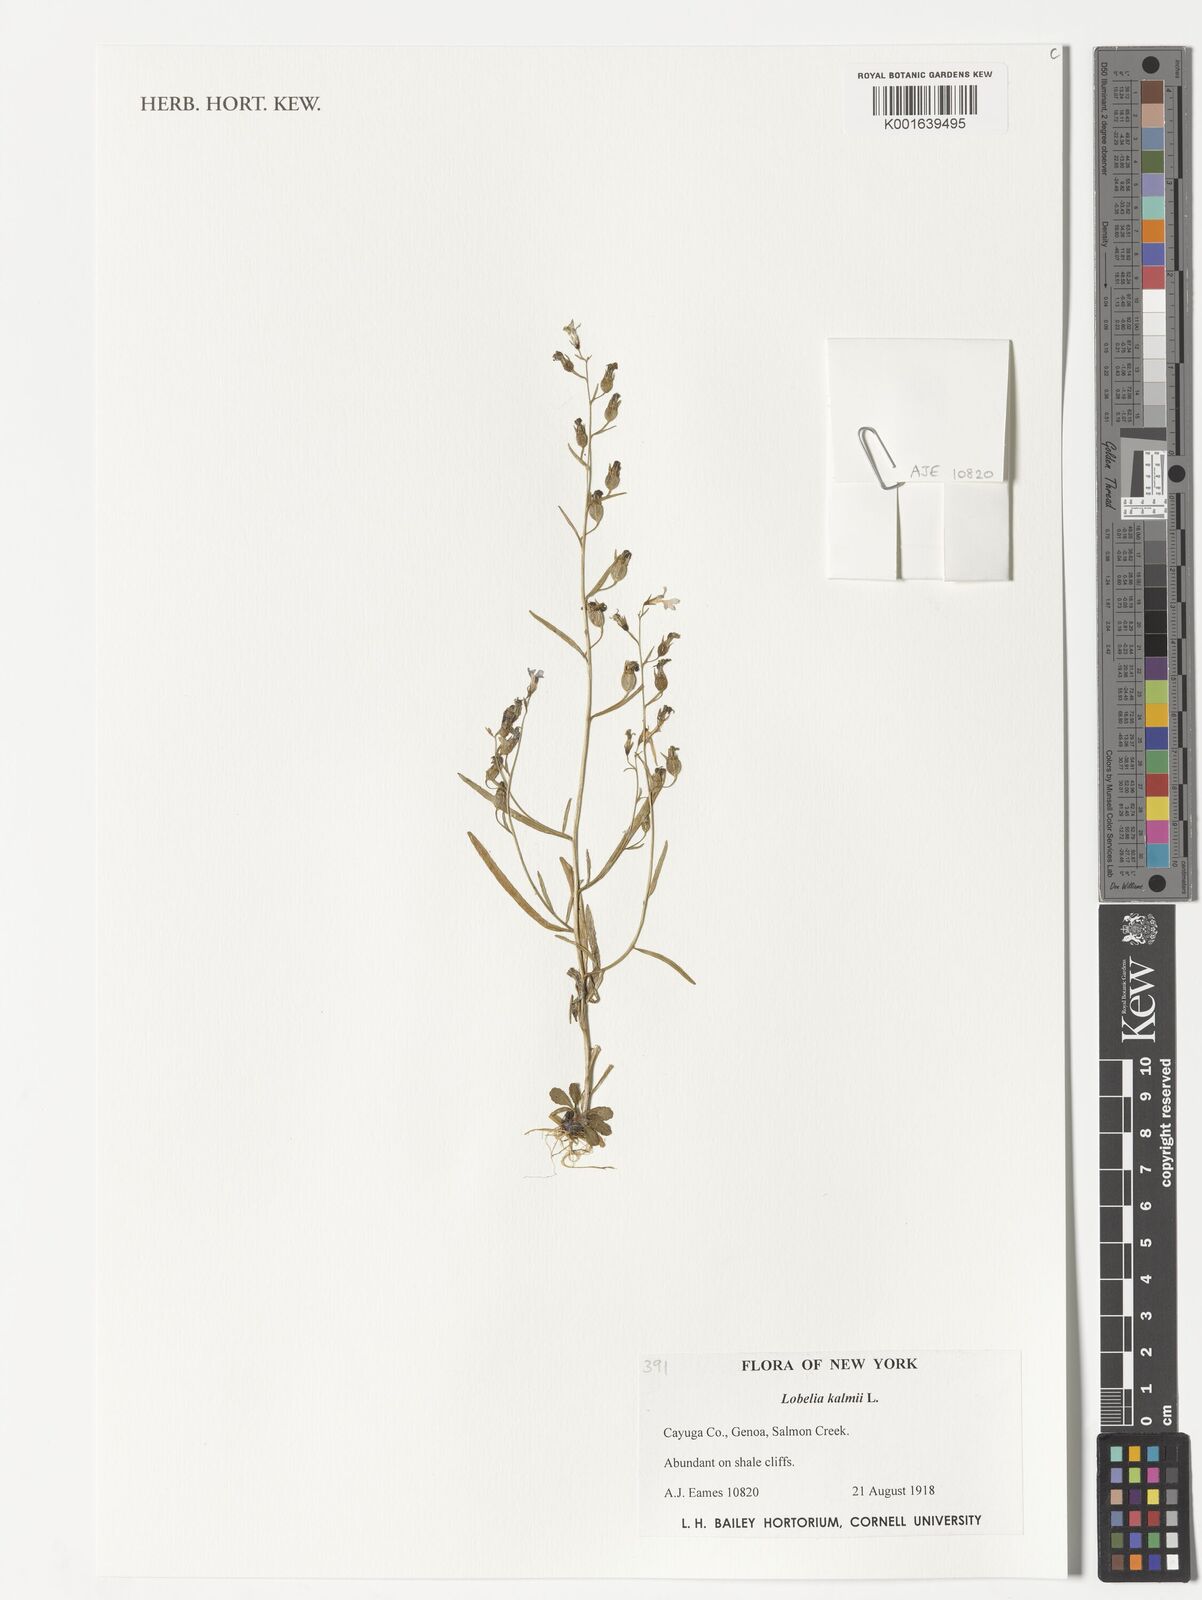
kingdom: Plantae
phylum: Tracheophyta
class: Magnoliopsida
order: Asterales
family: Campanulaceae
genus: Lobelia
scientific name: Lobelia kalmii
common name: Kalm's lobelia
